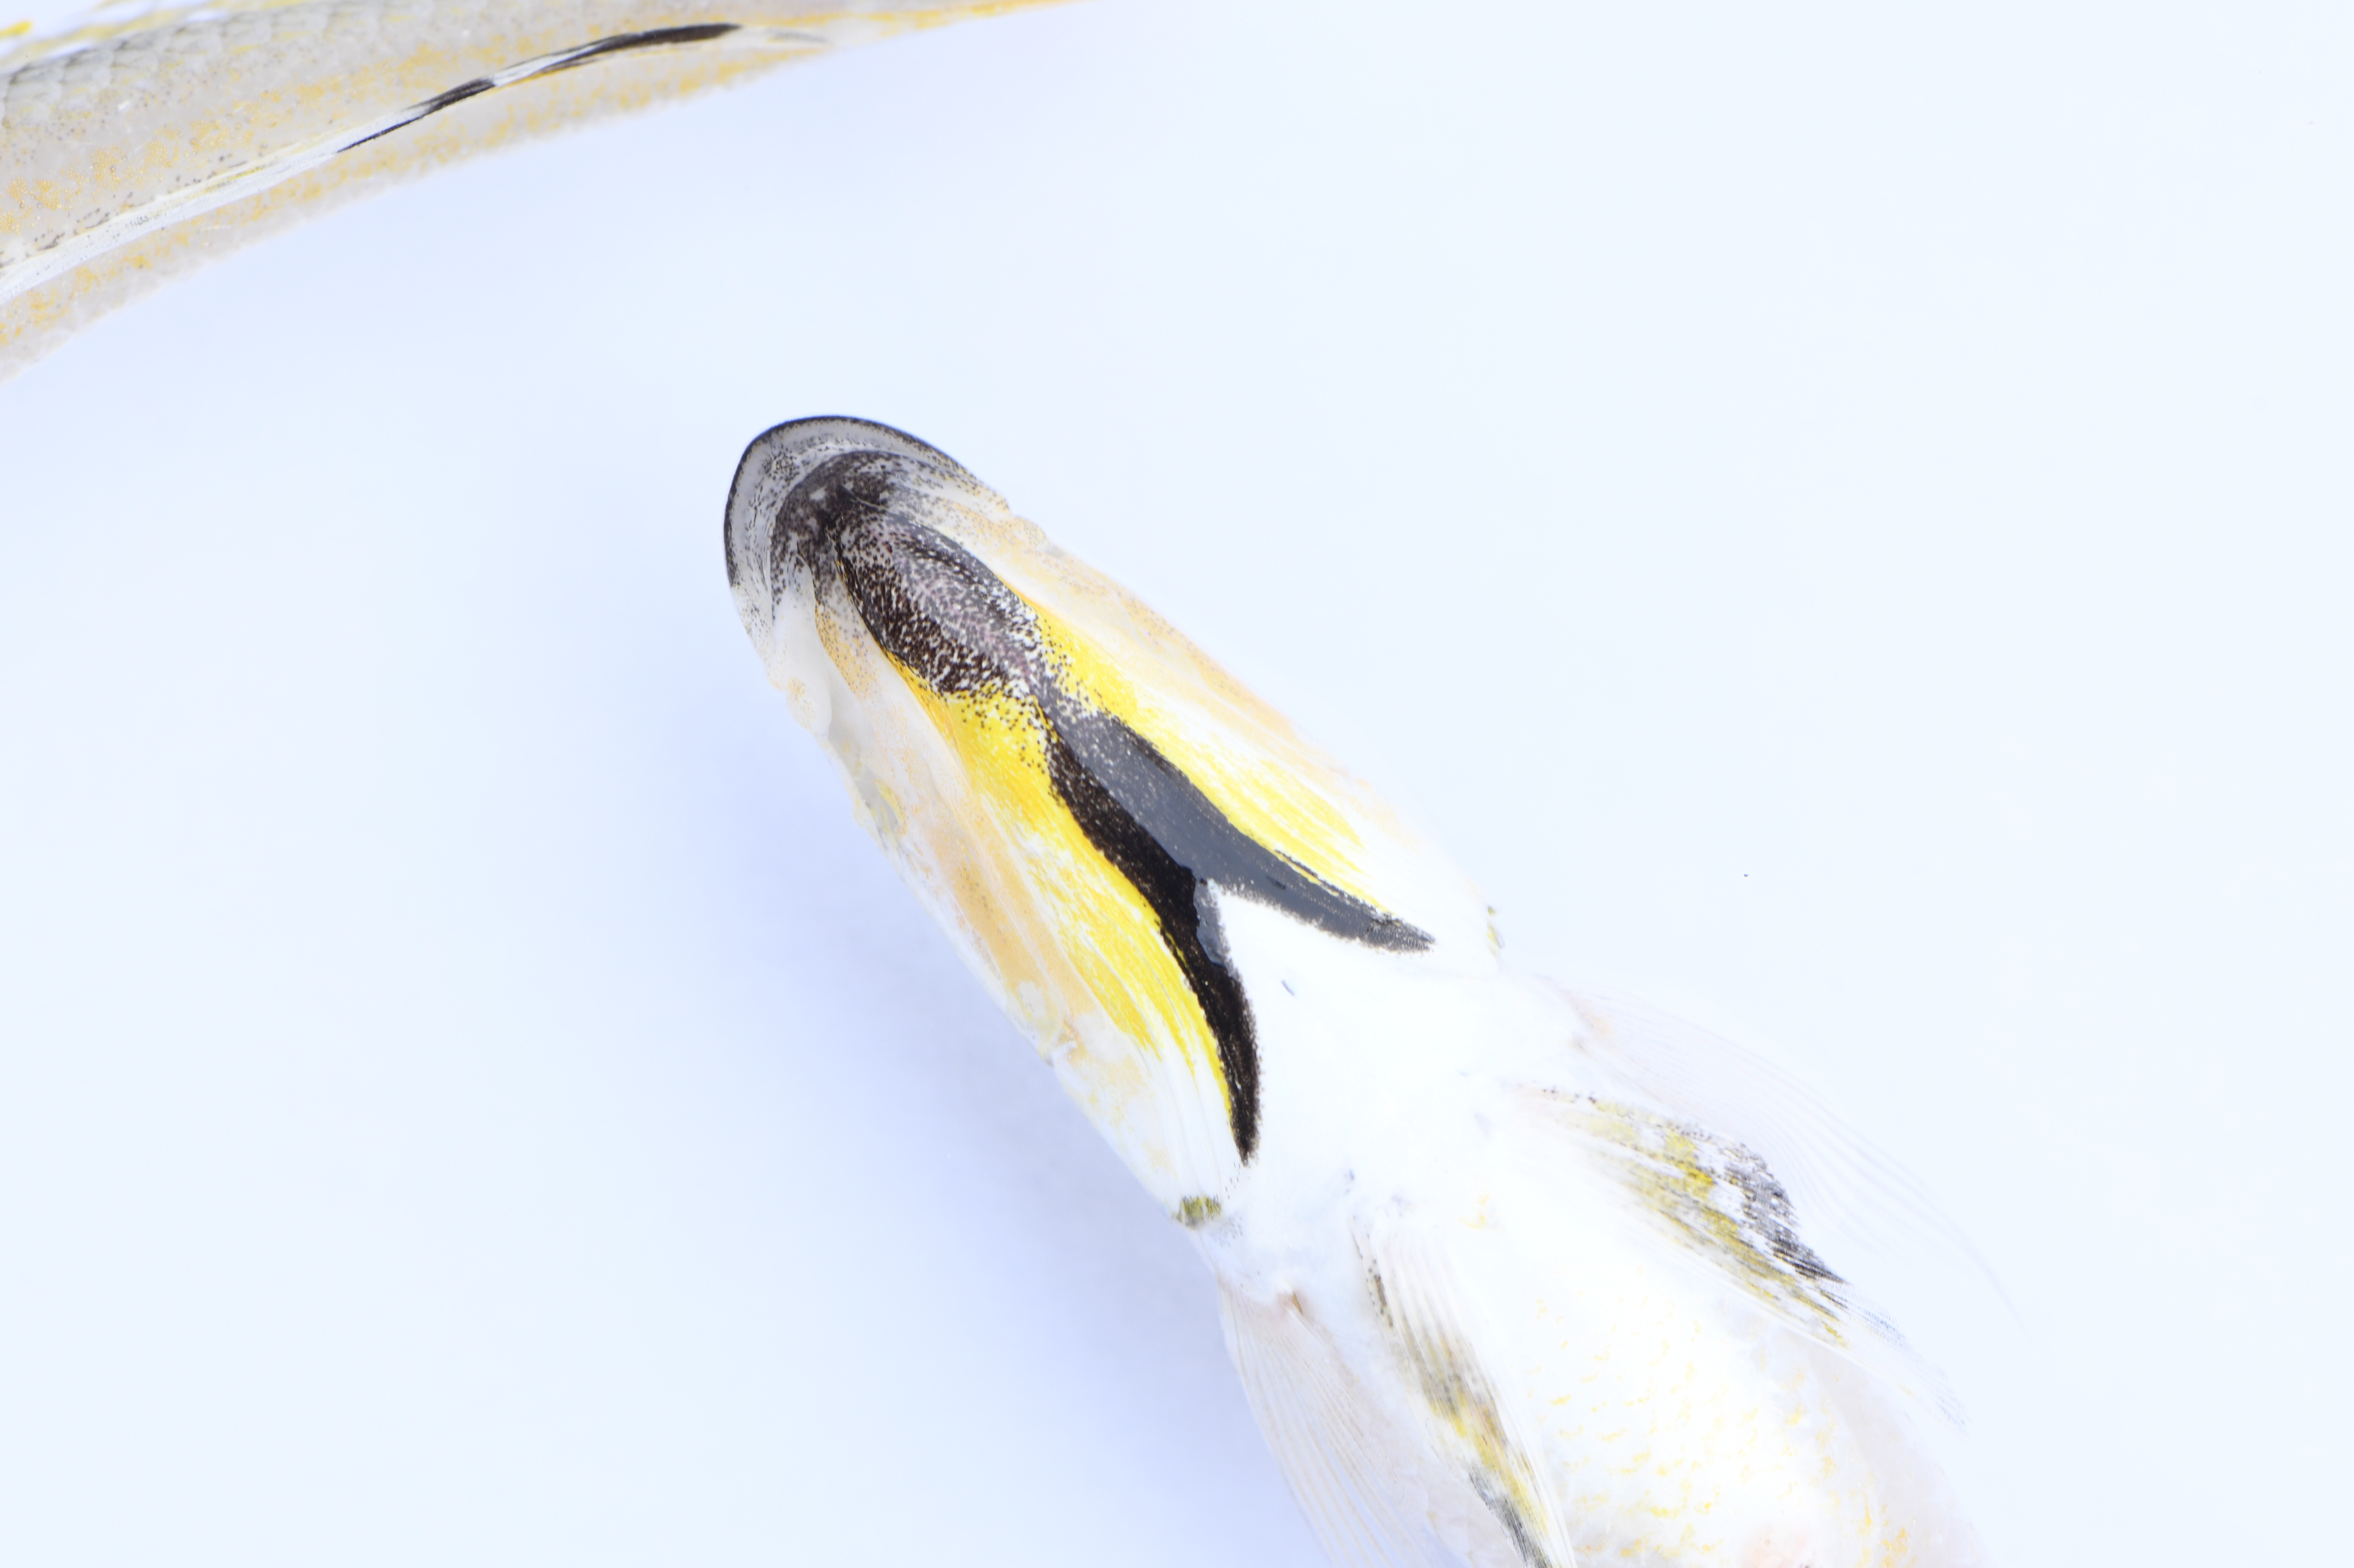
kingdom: Animalia
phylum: Chordata
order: Perciformes
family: Cichlidae
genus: Xenotilapia
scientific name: Xenotilapia melanogenys
